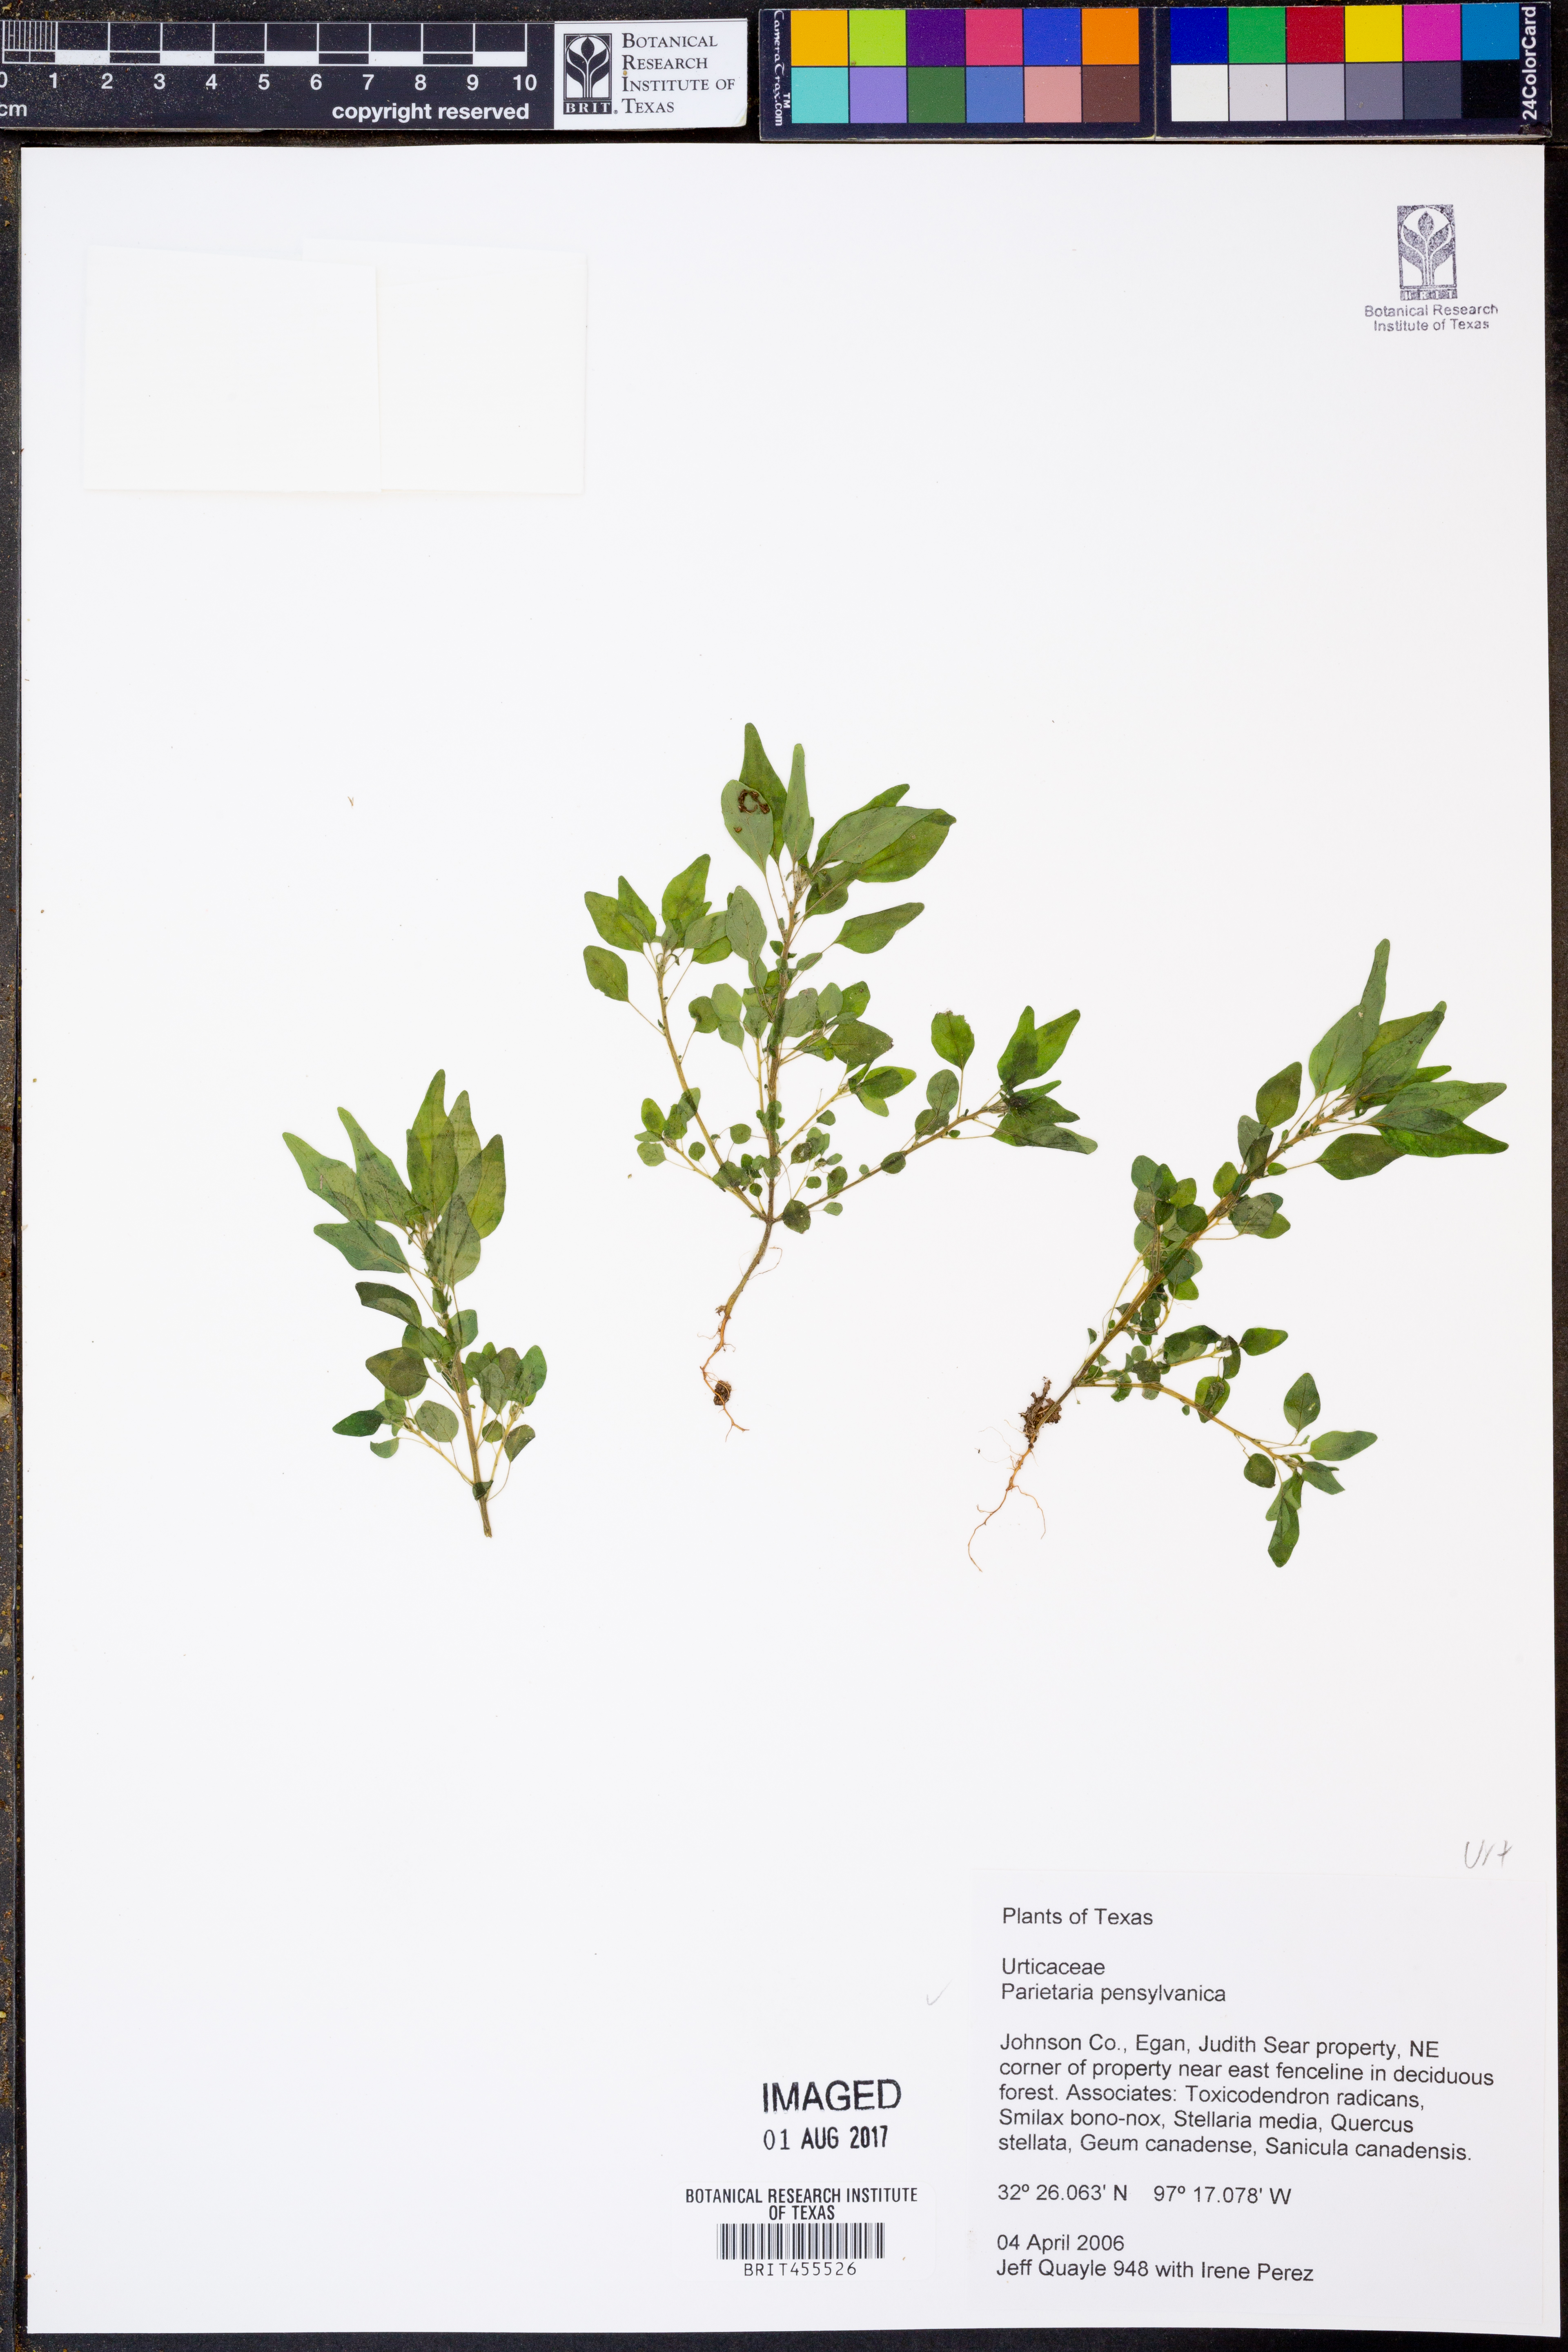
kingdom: Plantae
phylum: Tracheophyta
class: Magnoliopsida
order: Rosales
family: Urticaceae
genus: Parietaria
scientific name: Parietaria pensylvanica
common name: Pennsylvania pellitory
